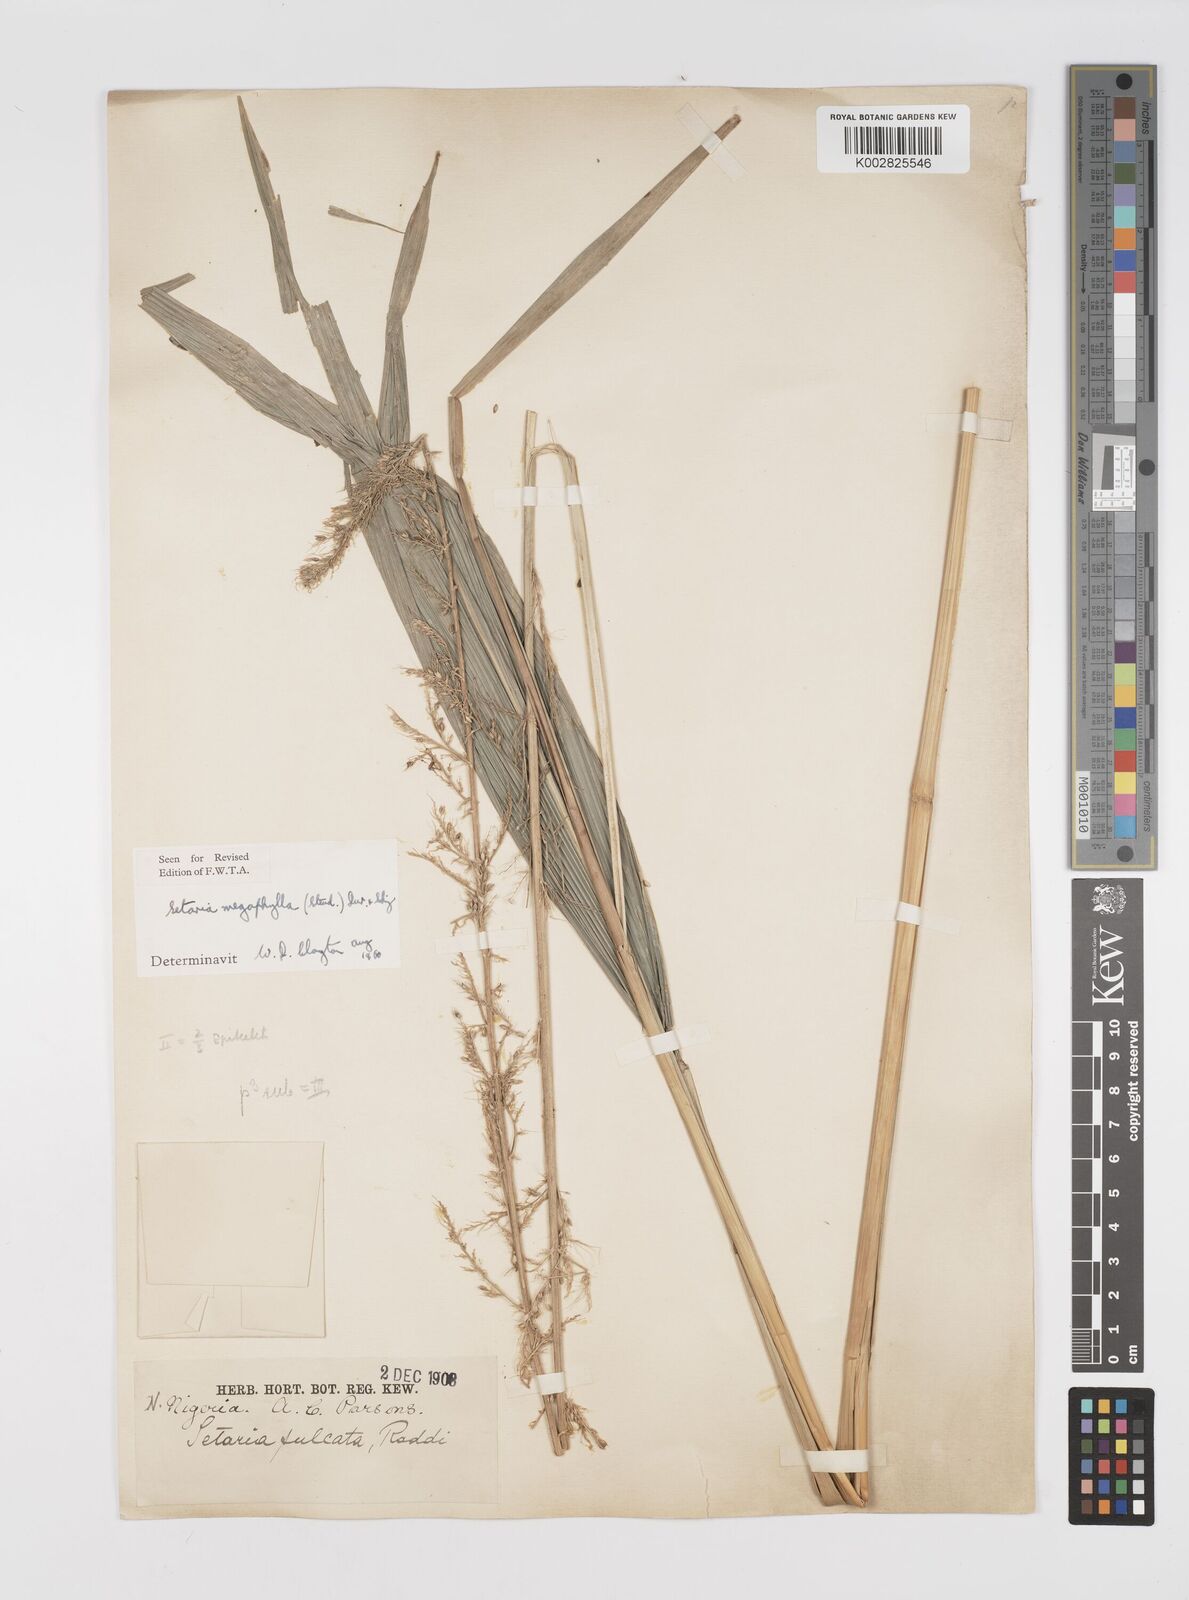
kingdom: Plantae
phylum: Tracheophyta
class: Liliopsida
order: Poales
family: Poaceae
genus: Setaria
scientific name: Setaria megaphylla
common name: Bigleaf bristlegrass
